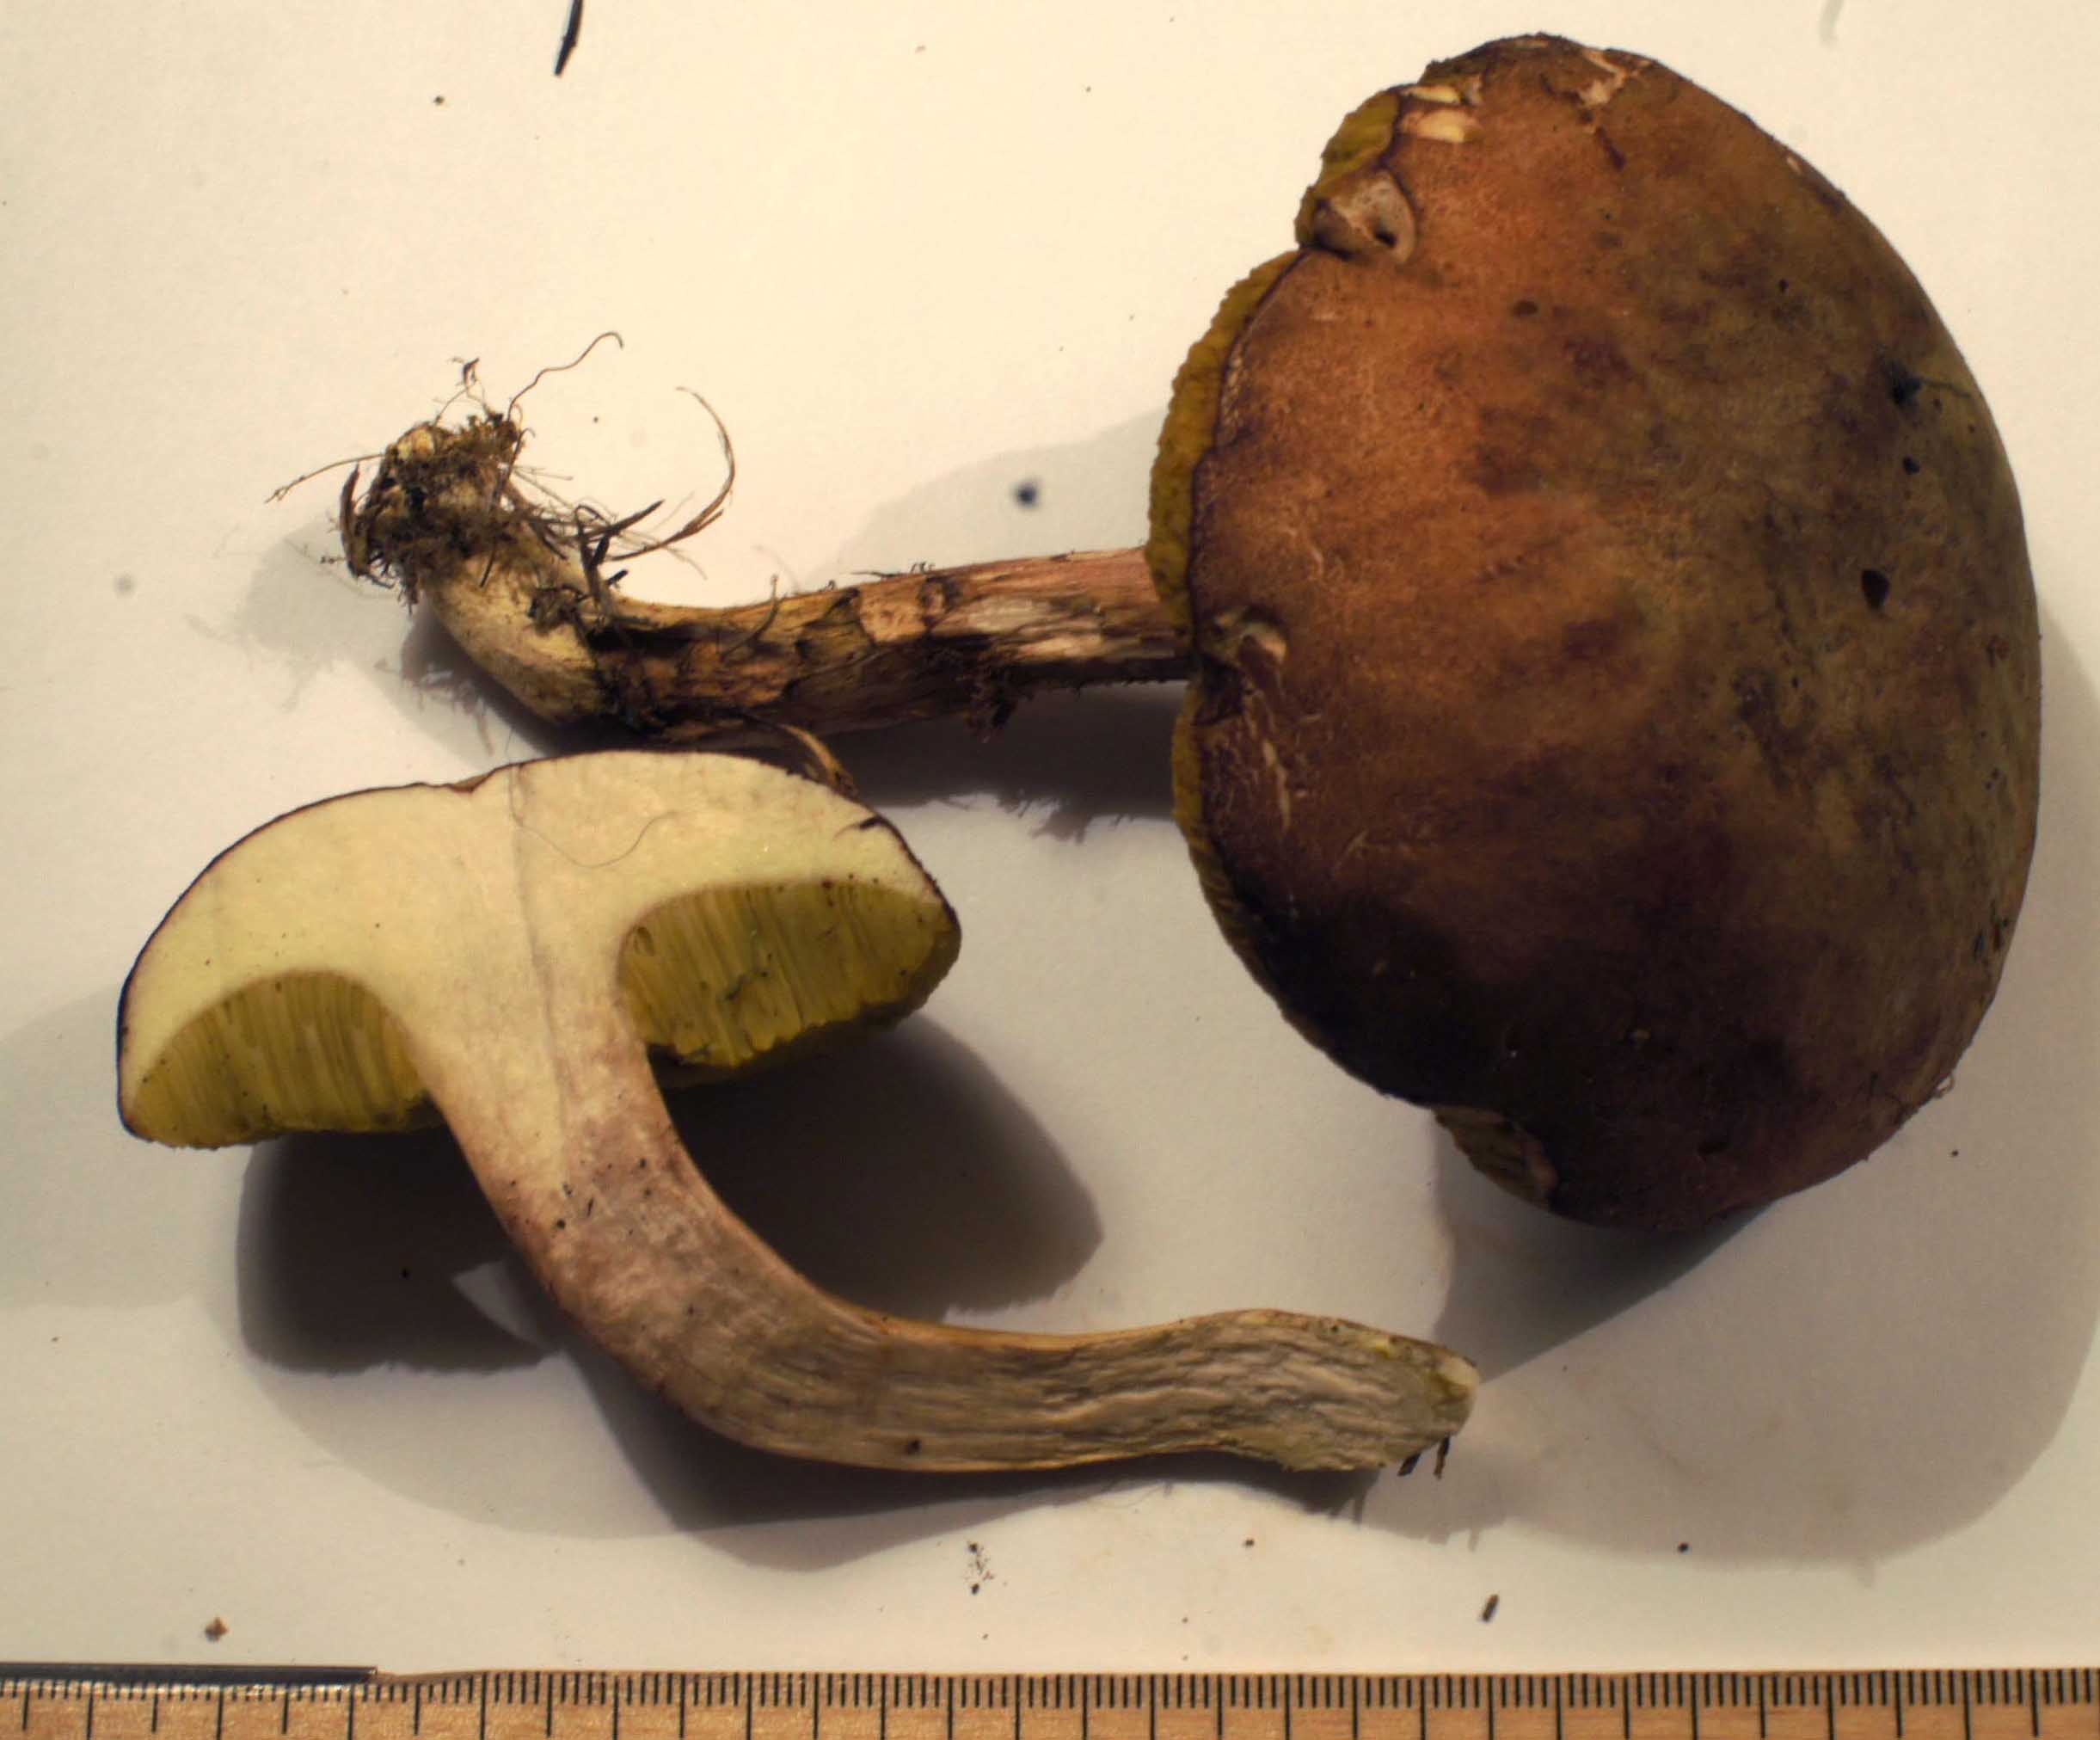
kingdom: Fungi
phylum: Basidiomycota
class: Agaricomycetes
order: Boletales
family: Boletaceae
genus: Xerocomus
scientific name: Xerocomus ferrugineus
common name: vaskeskinds-rørhat
